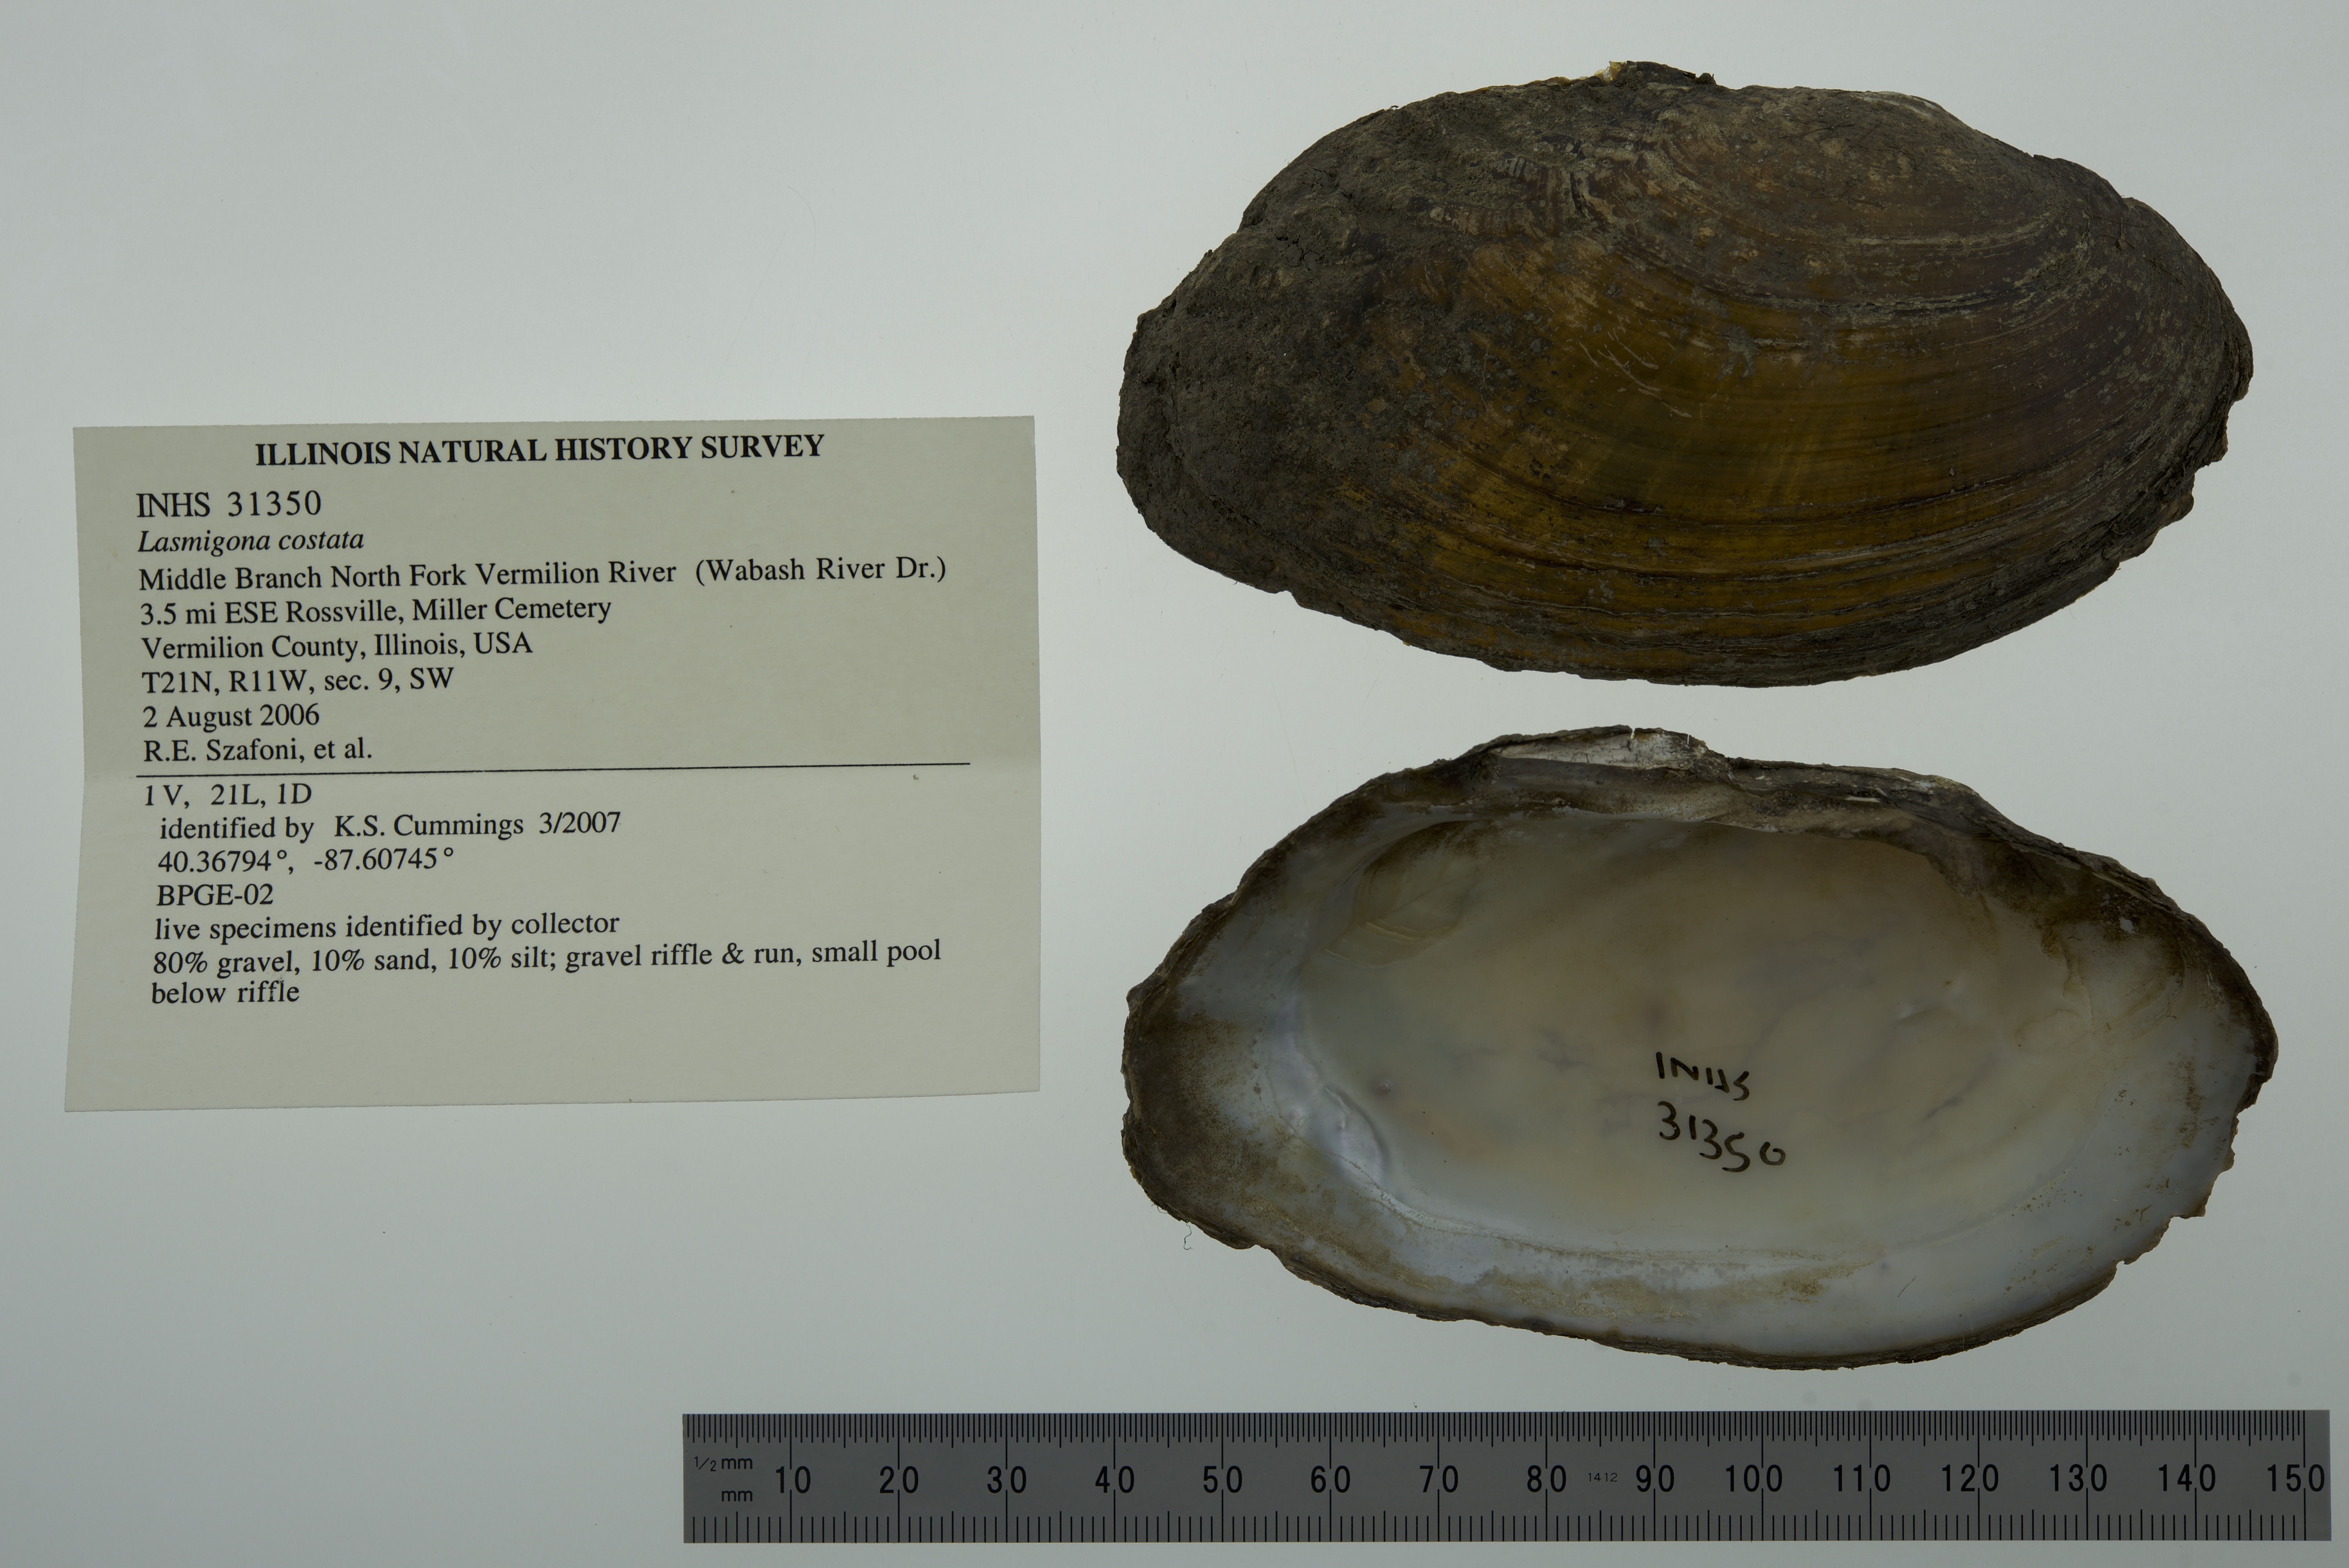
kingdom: Animalia
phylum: Mollusca
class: Bivalvia
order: Unionida
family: Unionidae
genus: Lasmigona
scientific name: Lasmigona costata
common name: Flutedshell
